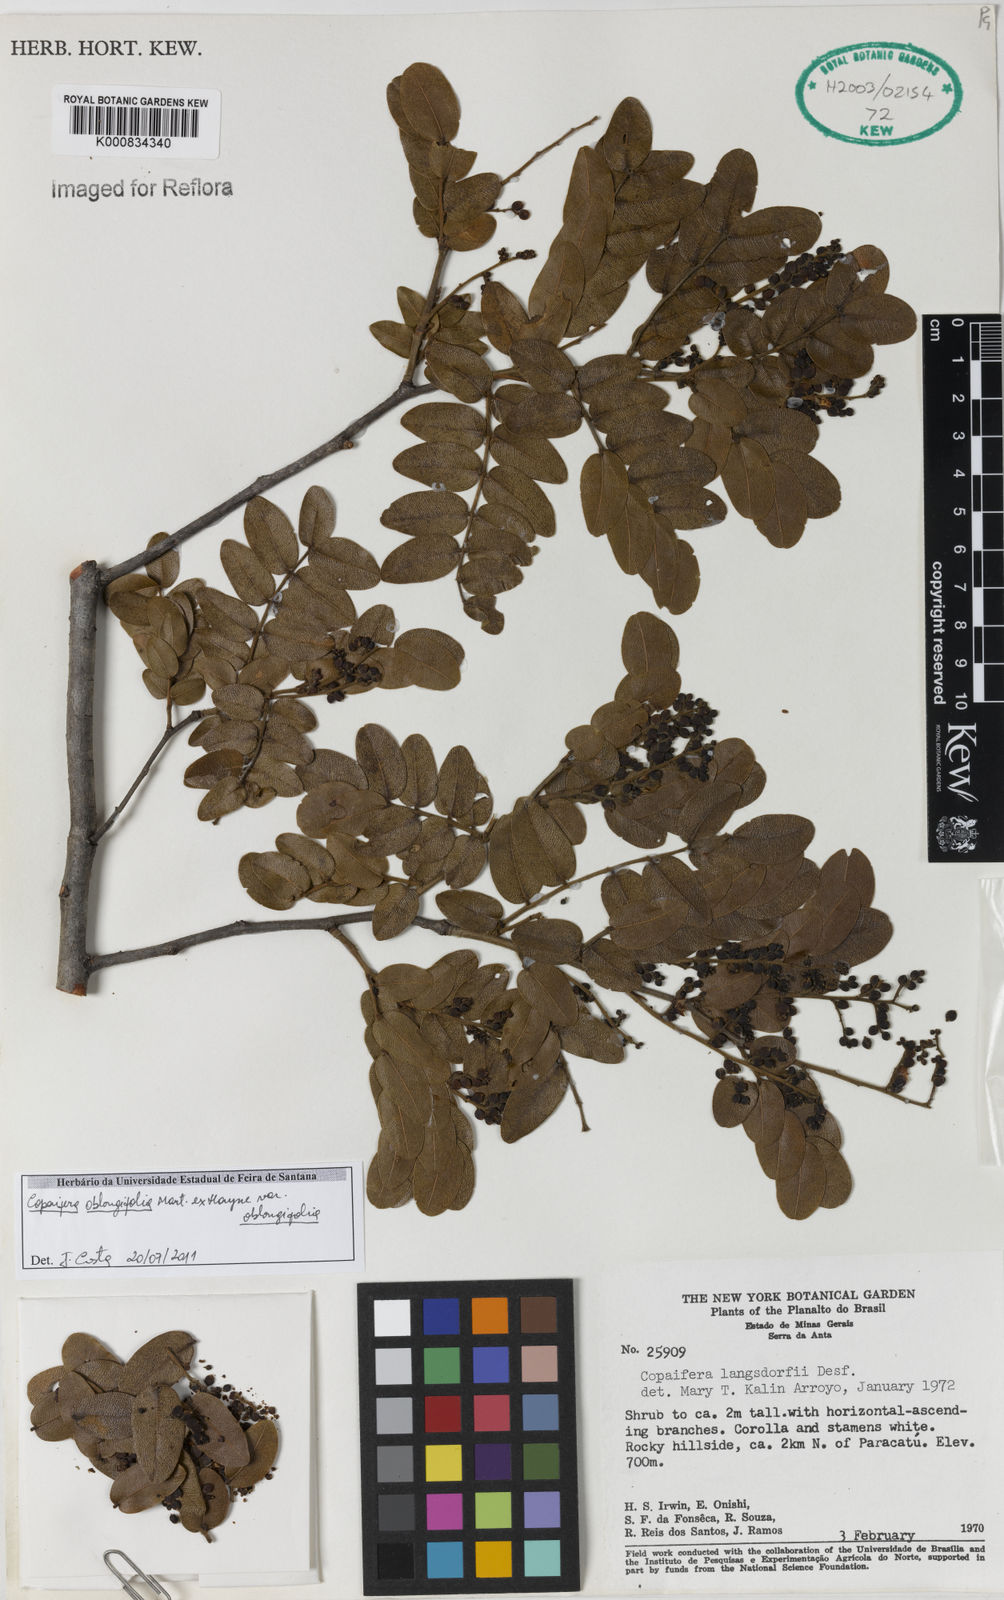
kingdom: Plantae
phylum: Tracheophyta
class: Magnoliopsida
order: Fabales
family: Fabaceae
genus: Copaifera
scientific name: Copaifera
